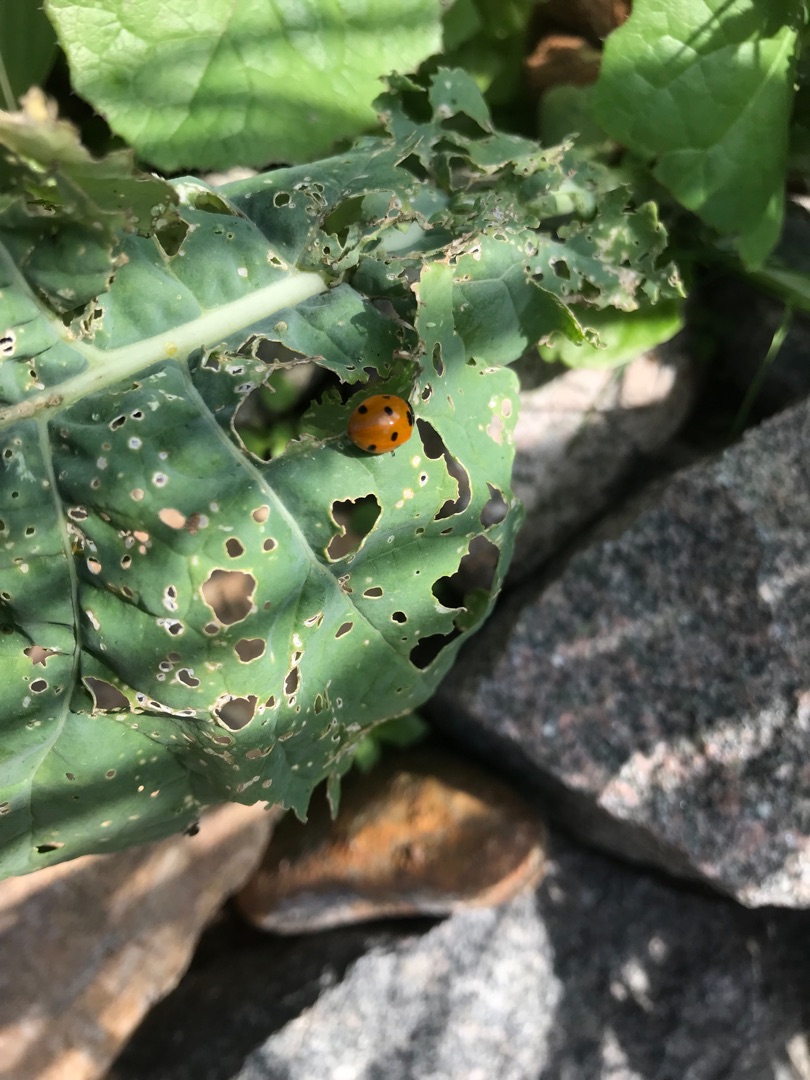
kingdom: Animalia
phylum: Arthropoda
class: Insecta
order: Coleoptera
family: Coccinellidae
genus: Coccinella
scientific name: Coccinella septempunctata
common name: Syvplettet mariehøne
